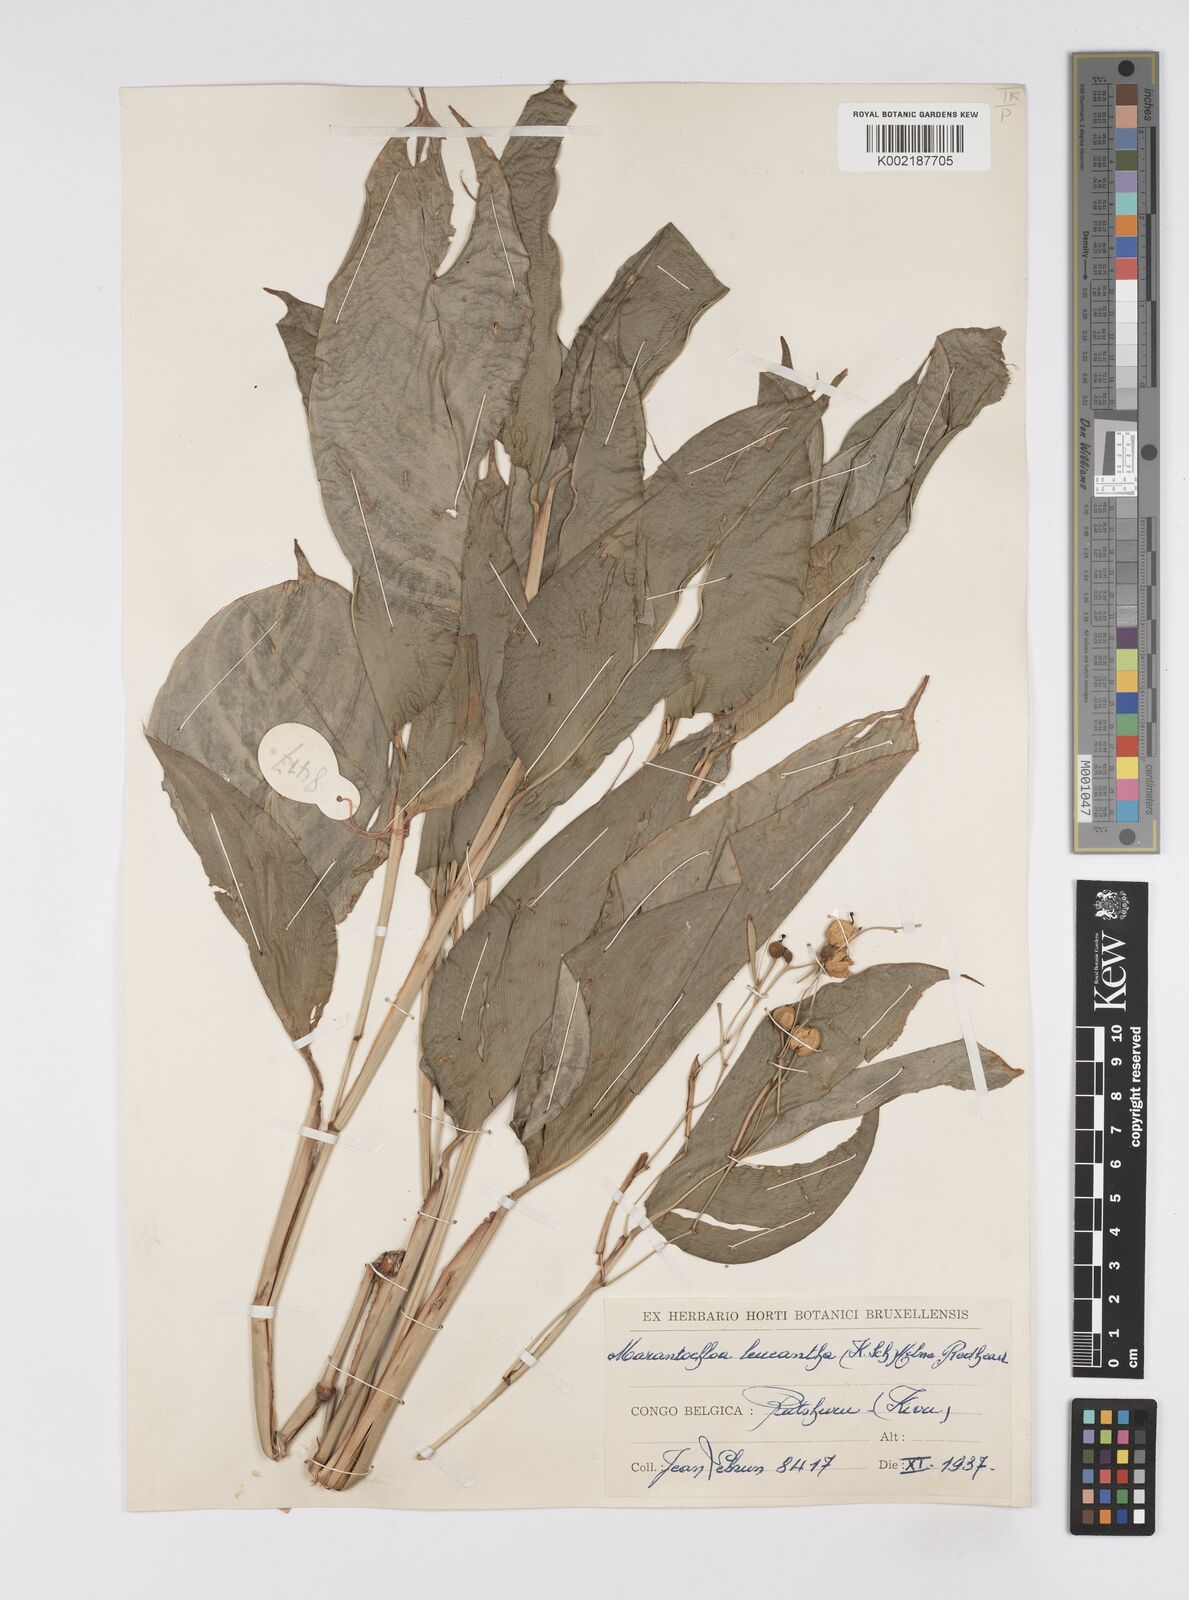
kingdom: Plantae
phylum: Tracheophyta
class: Liliopsida
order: Zingiberales
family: Marantaceae
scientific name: Marantaceae
